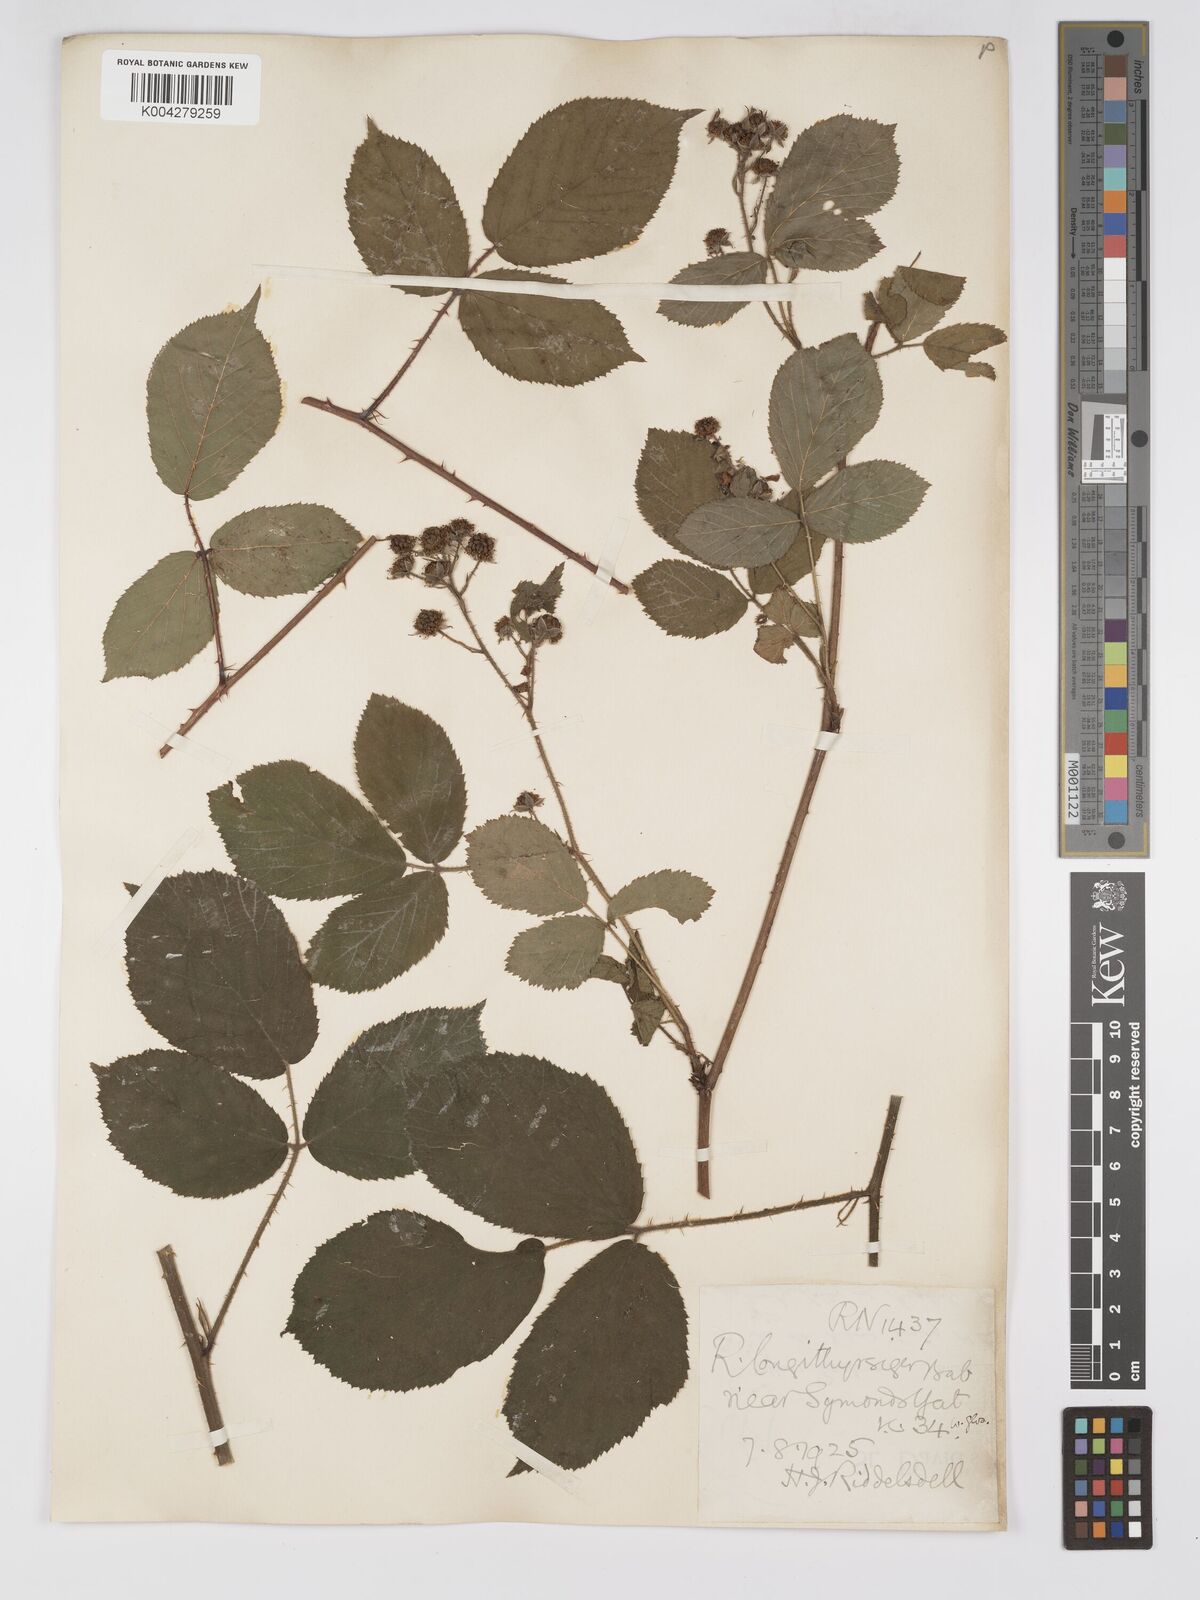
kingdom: Plantae
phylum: Tracheophyta
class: Magnoliopsida
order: Rosales
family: Rosaceae
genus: Rubus
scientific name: Rubus longithyrsiger
